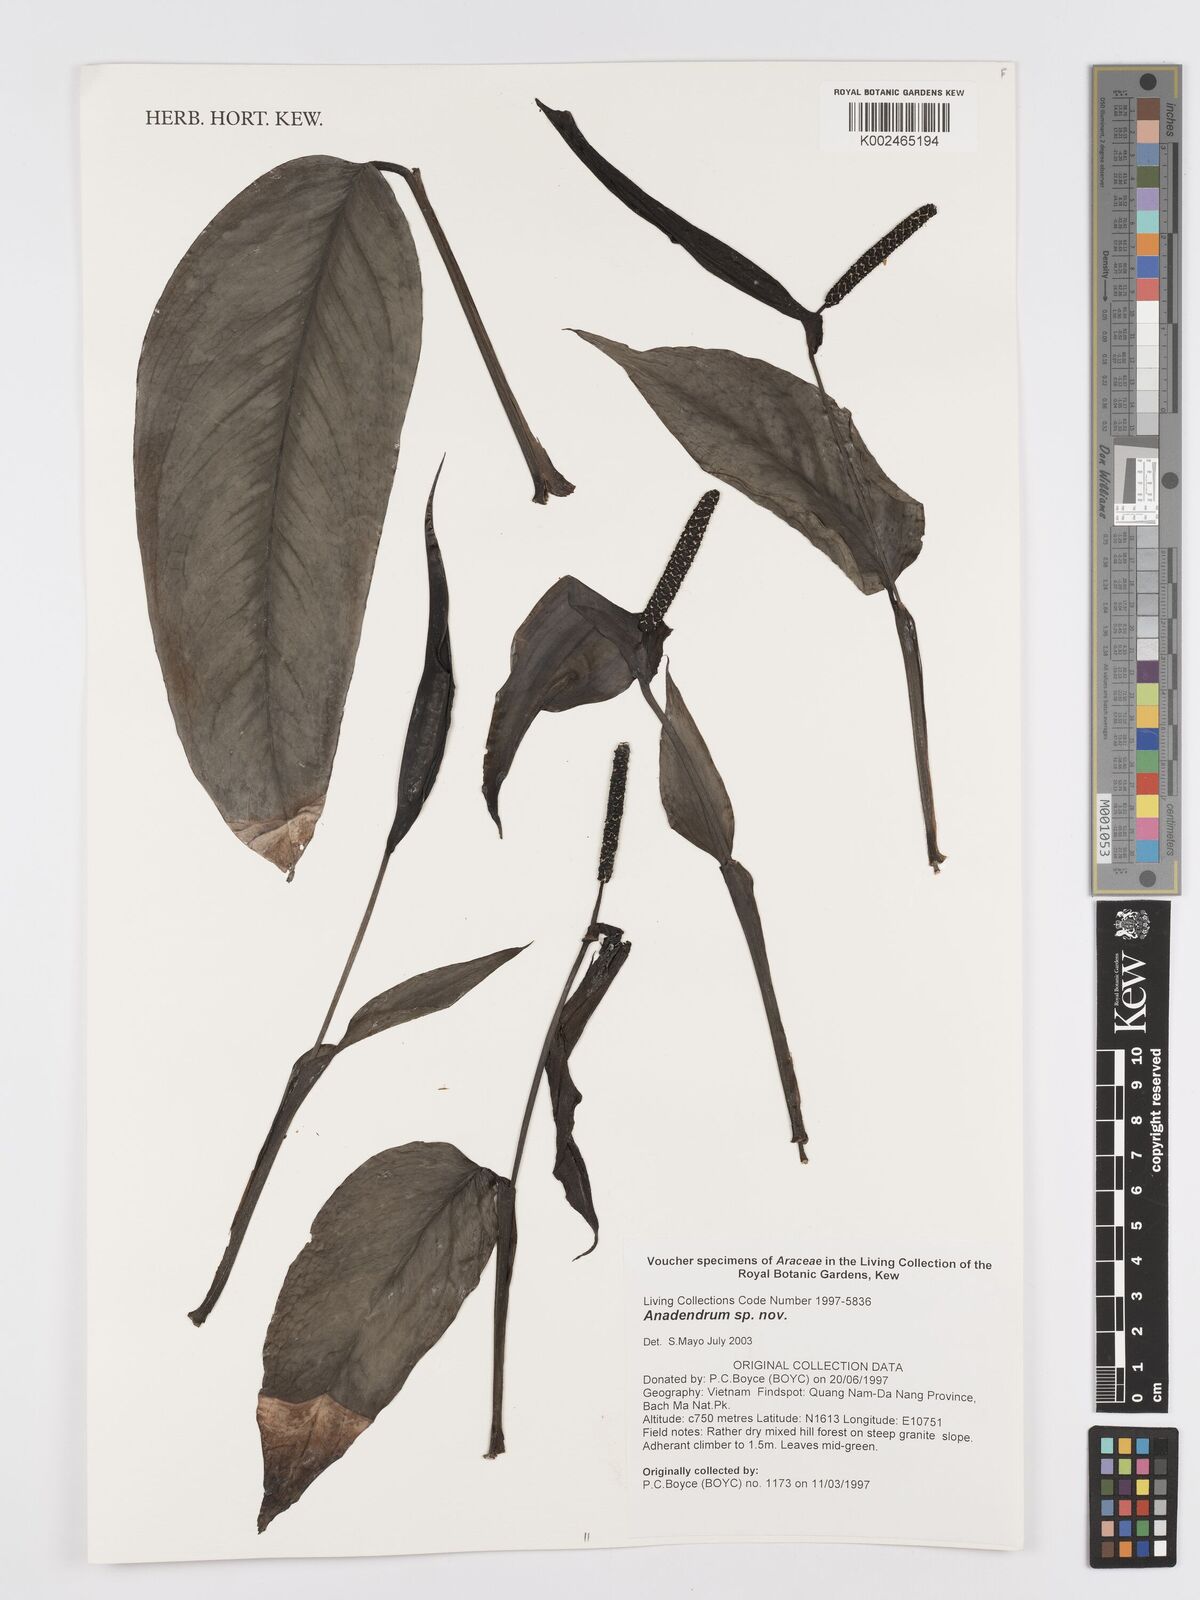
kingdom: Plantae
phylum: Tracheophyta
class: Liliopsida
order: Alismatales
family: Araceae
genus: Anadendrum
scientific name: Anadendrum
